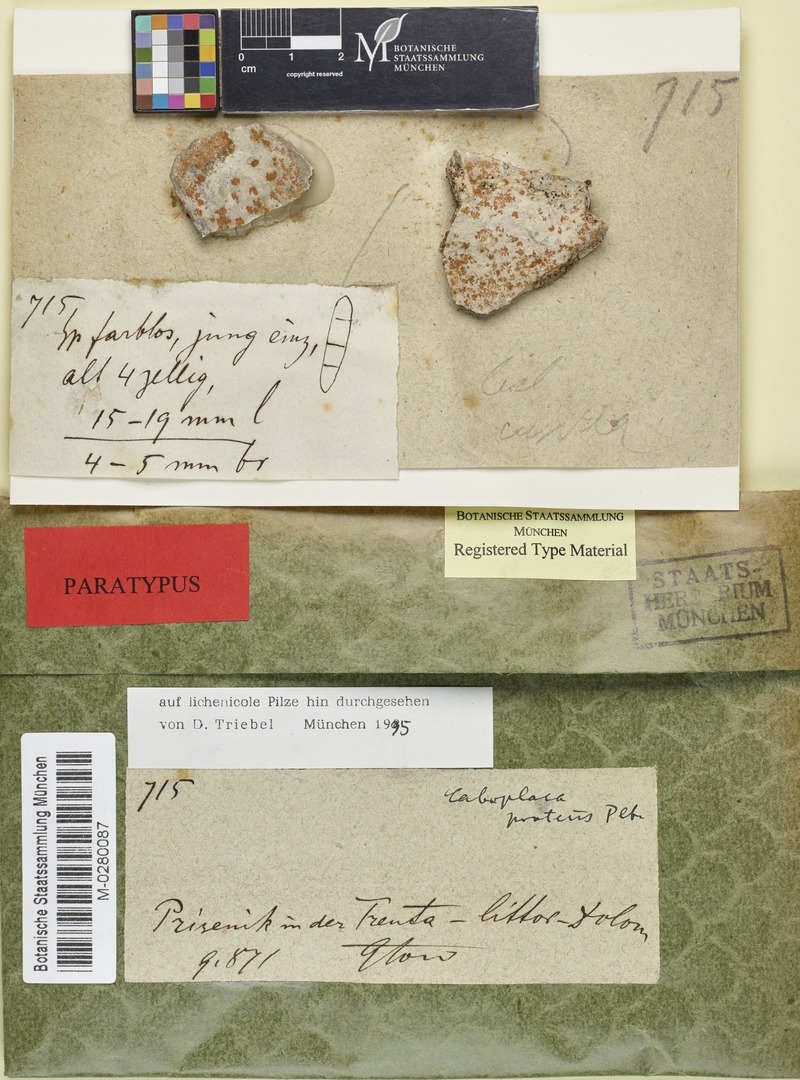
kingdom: Fungi
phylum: Ascomycota
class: Lecanoromycetes
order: Teloschistales
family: Teloschistaceae
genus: Leproplaca
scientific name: Leproplaca proteus
